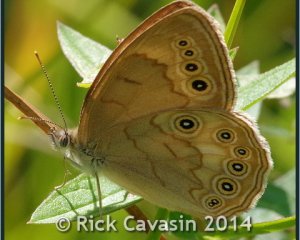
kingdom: Animalia
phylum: Arthropoda
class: Insecta
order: Lepidoptera
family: Nymphalidae
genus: Lethe
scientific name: Lethe eurydice
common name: Eyed Brown
